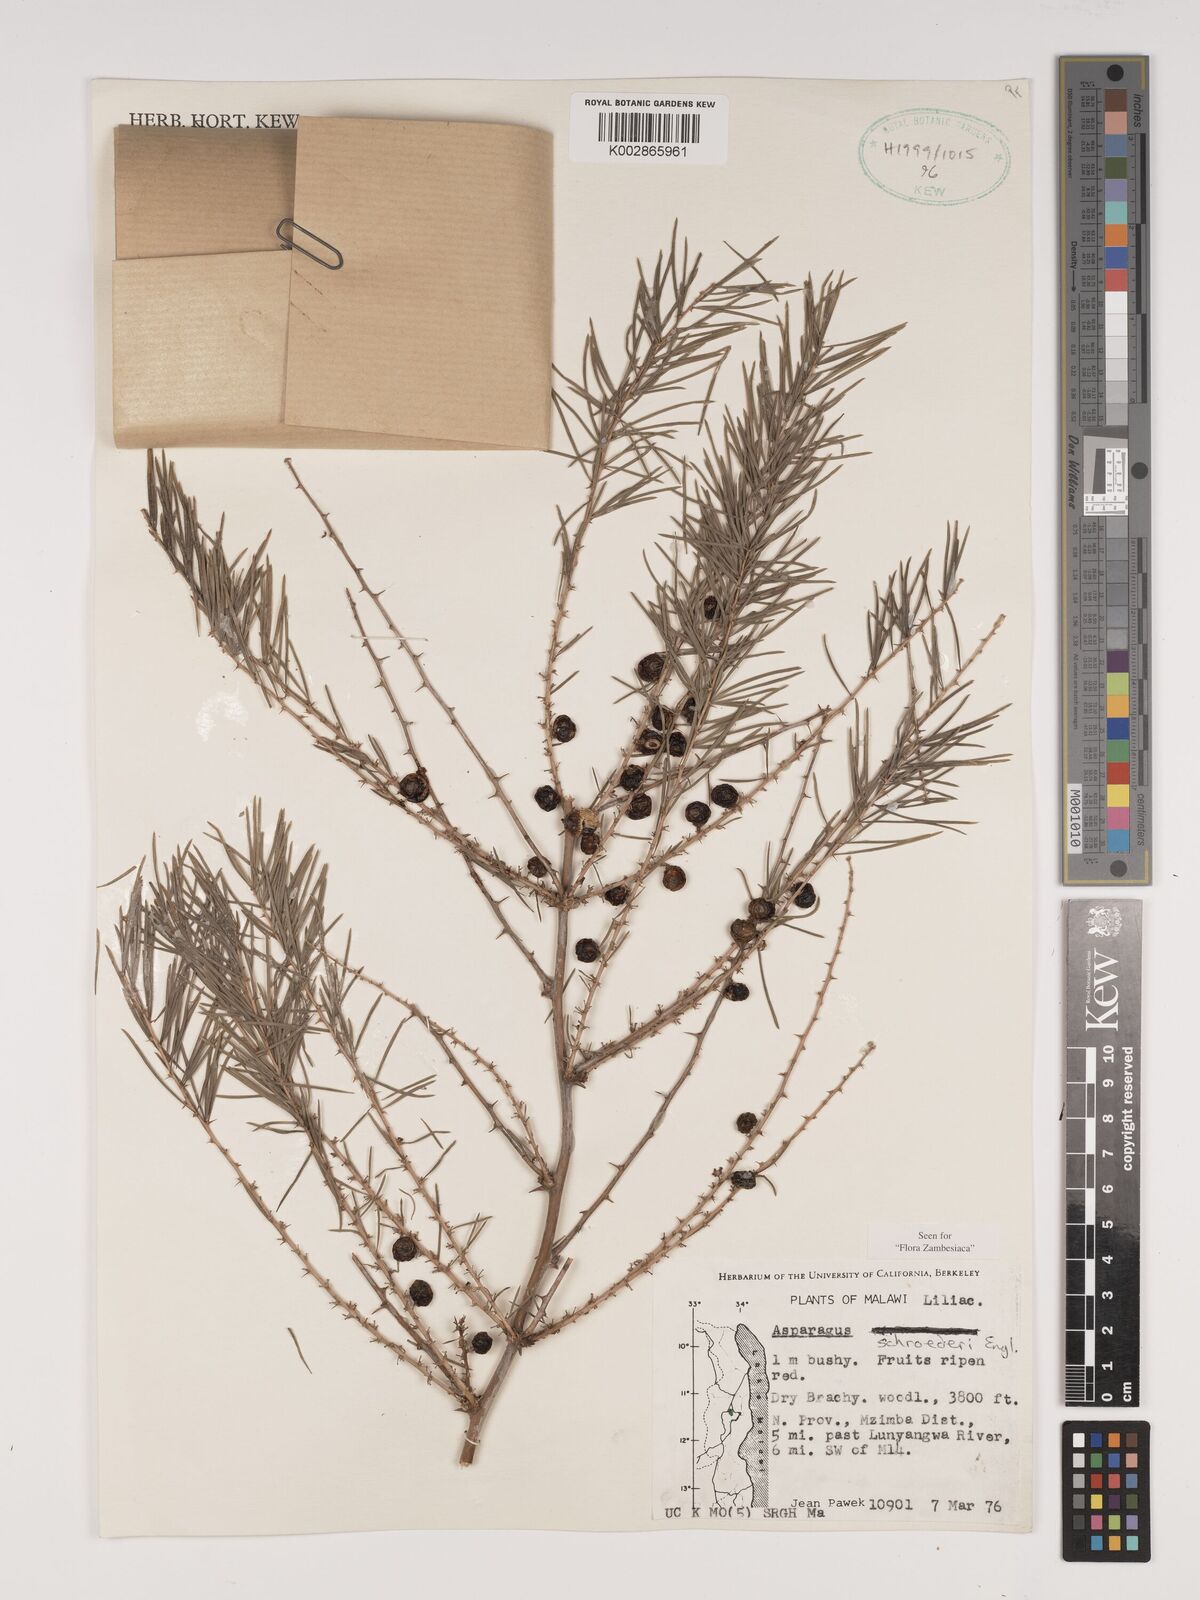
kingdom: Plantae
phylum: Tracheophyta
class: Liliopsida
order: Asparagales
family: Asparagaceae
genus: Asparagus
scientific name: Asparagus schroederi
